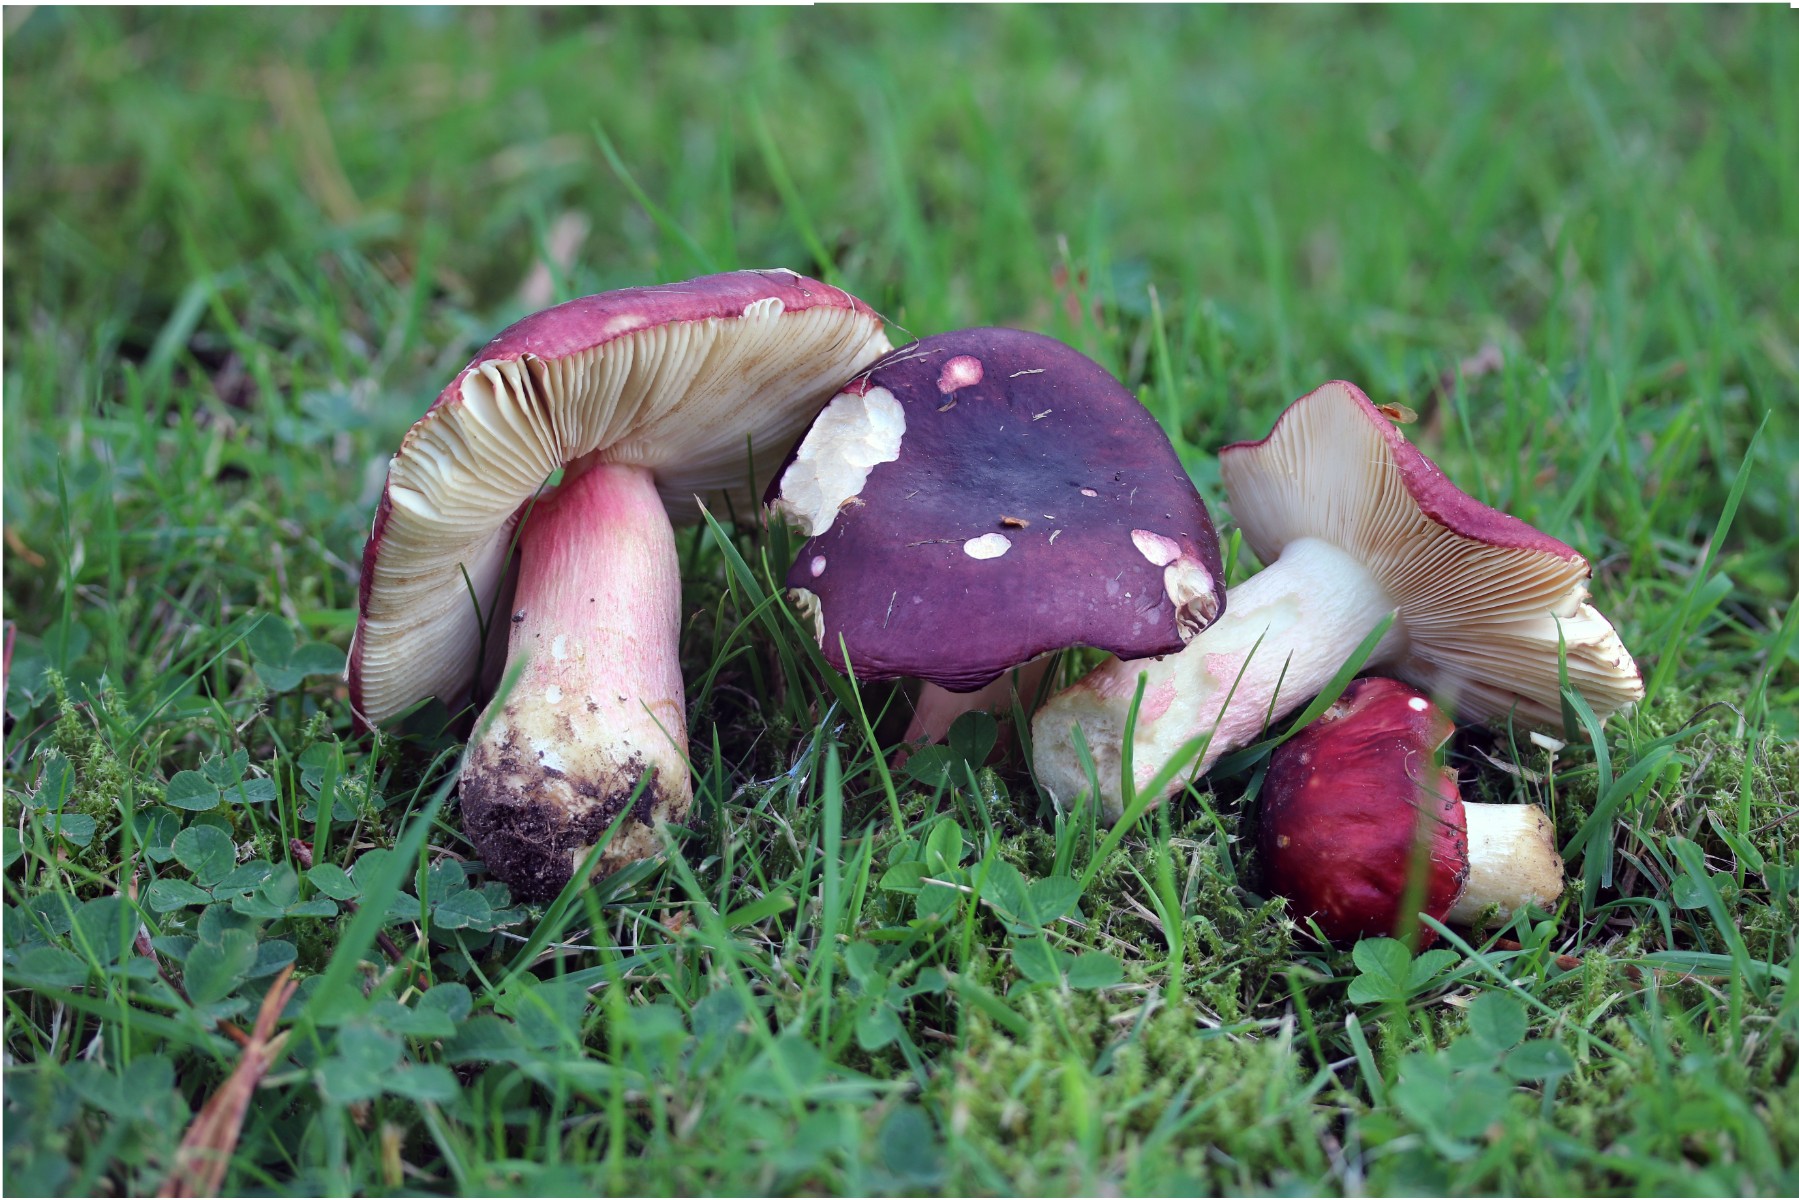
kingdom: Fungi
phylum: Basidiomycota
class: Agaricomycetes
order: Russulales
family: Russulaceae
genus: Russula
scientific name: Russula xerampelina
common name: hummer-skørhat
